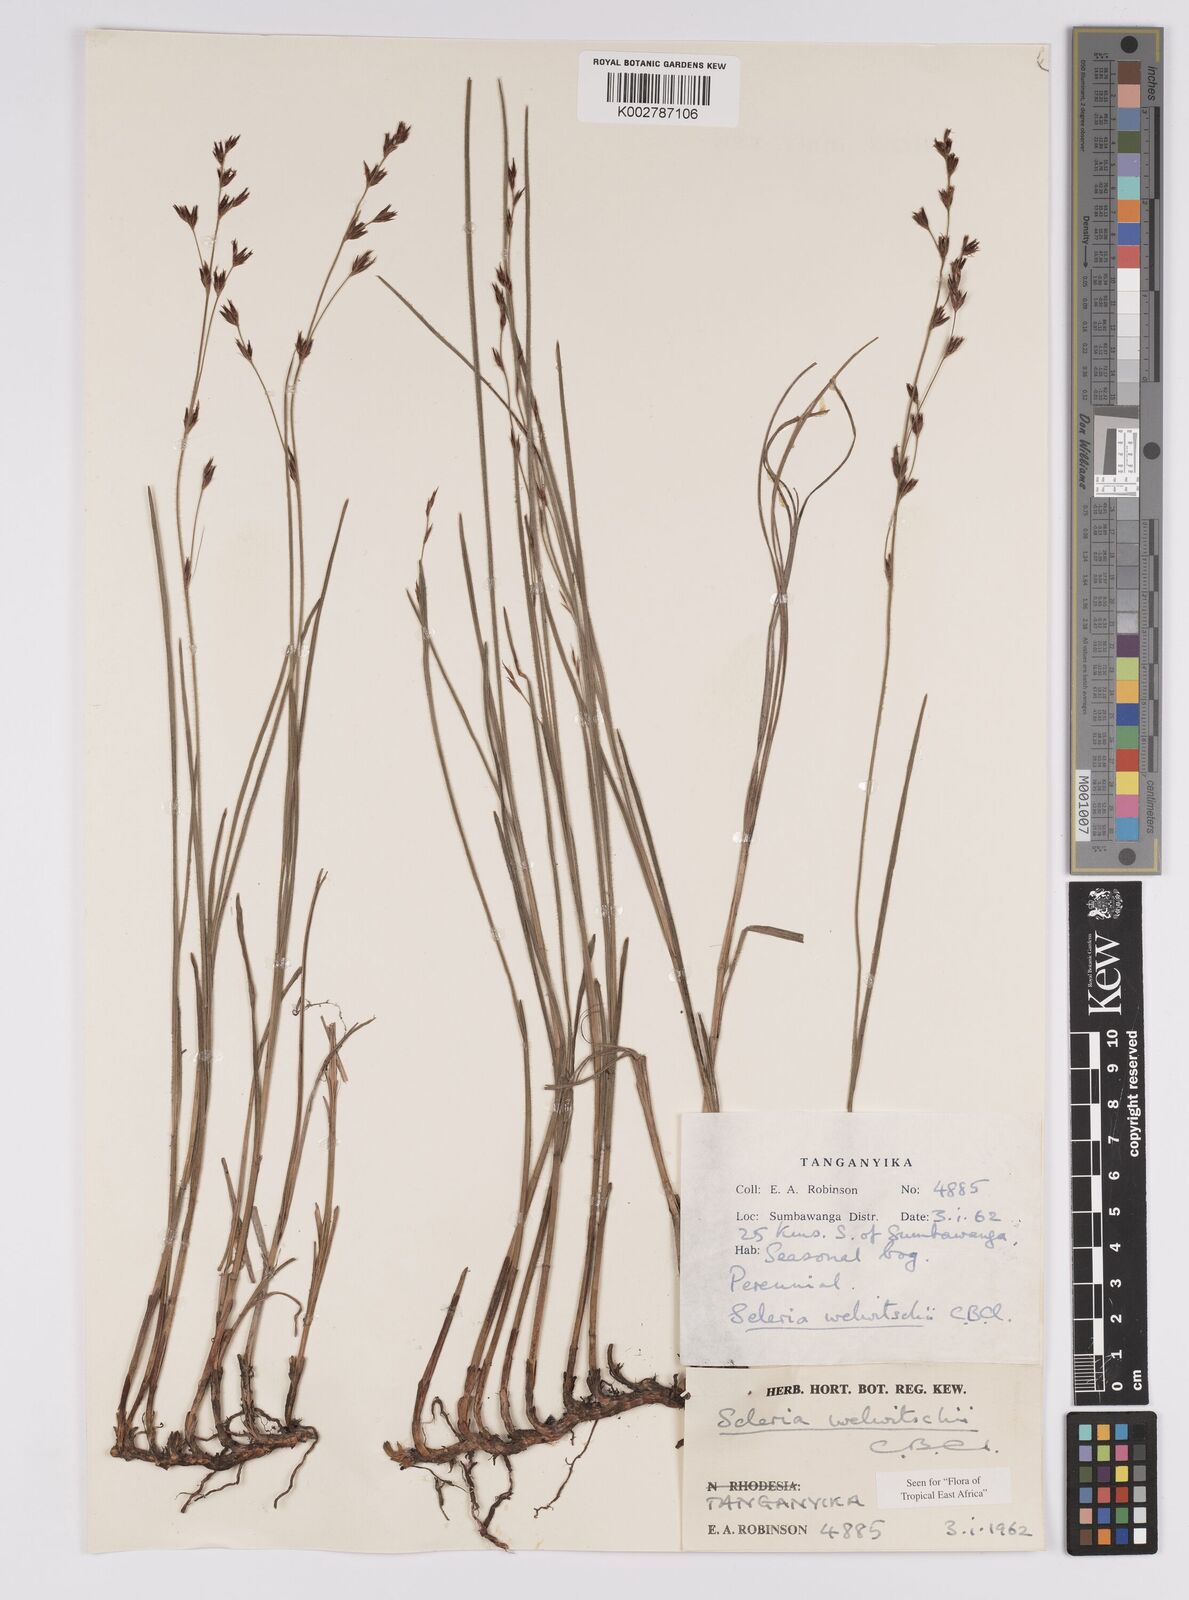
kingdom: Plantae
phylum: Tracheophyta
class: Liliopsida
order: Poales
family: Cyperaceae
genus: Scleria
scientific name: Scleria welwitschii
